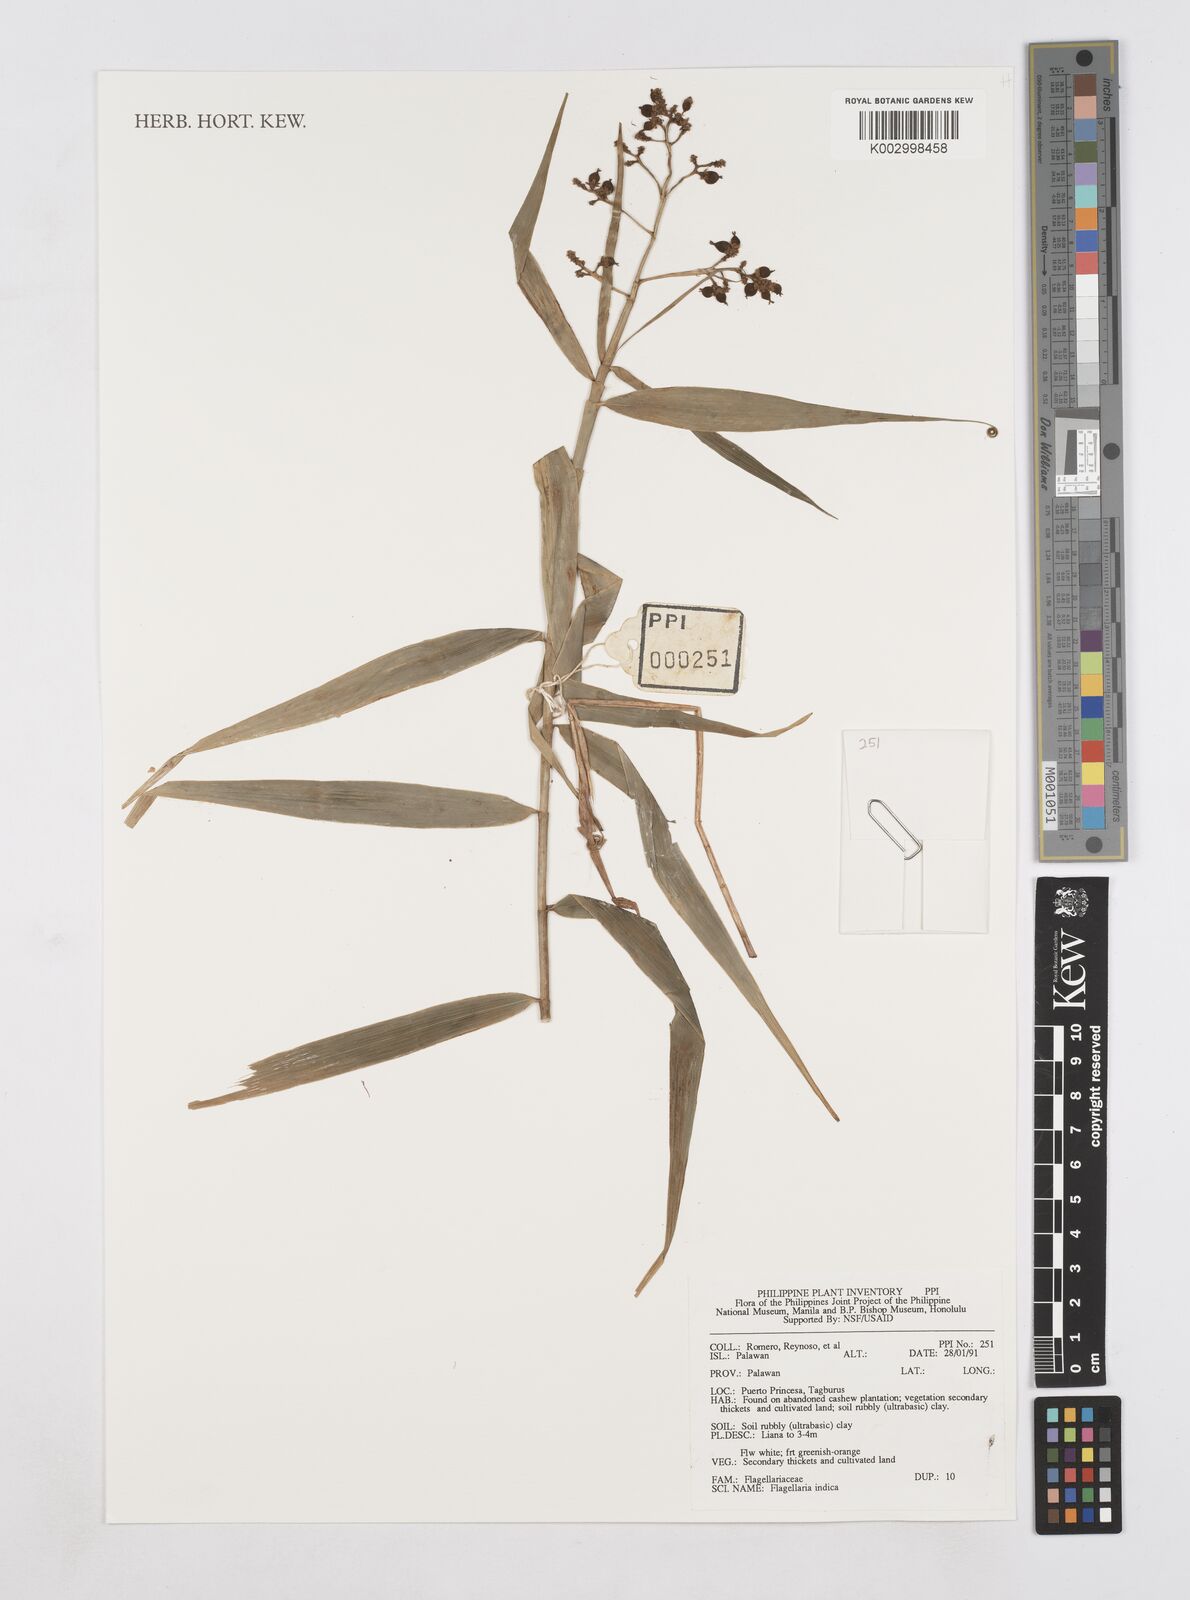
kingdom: Plantae
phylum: Tracheophyta
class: Liliopsida
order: Poales
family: Flagellariaceae
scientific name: Flagellariaceae
